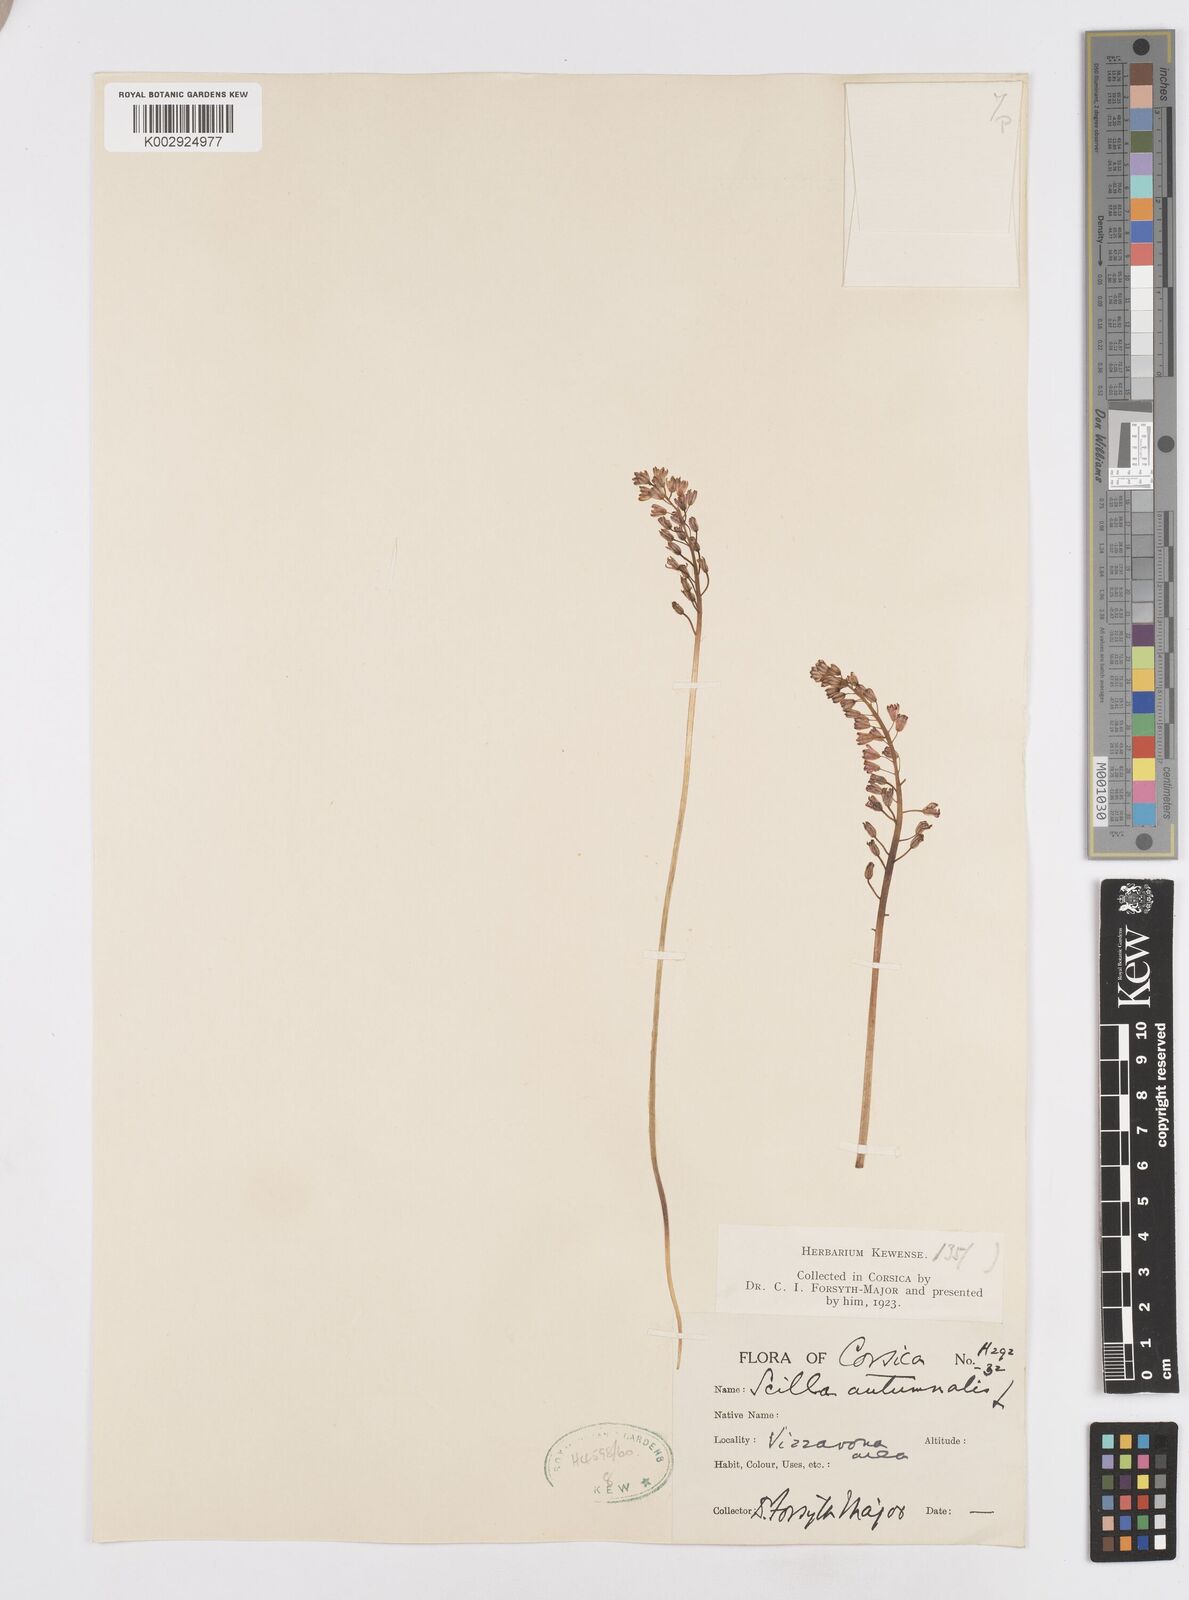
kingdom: Plantae
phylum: Tracheophyta
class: Liliopsida
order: Asparagales
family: Asparagaceae
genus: Prospero
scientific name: Prospero autumnale
